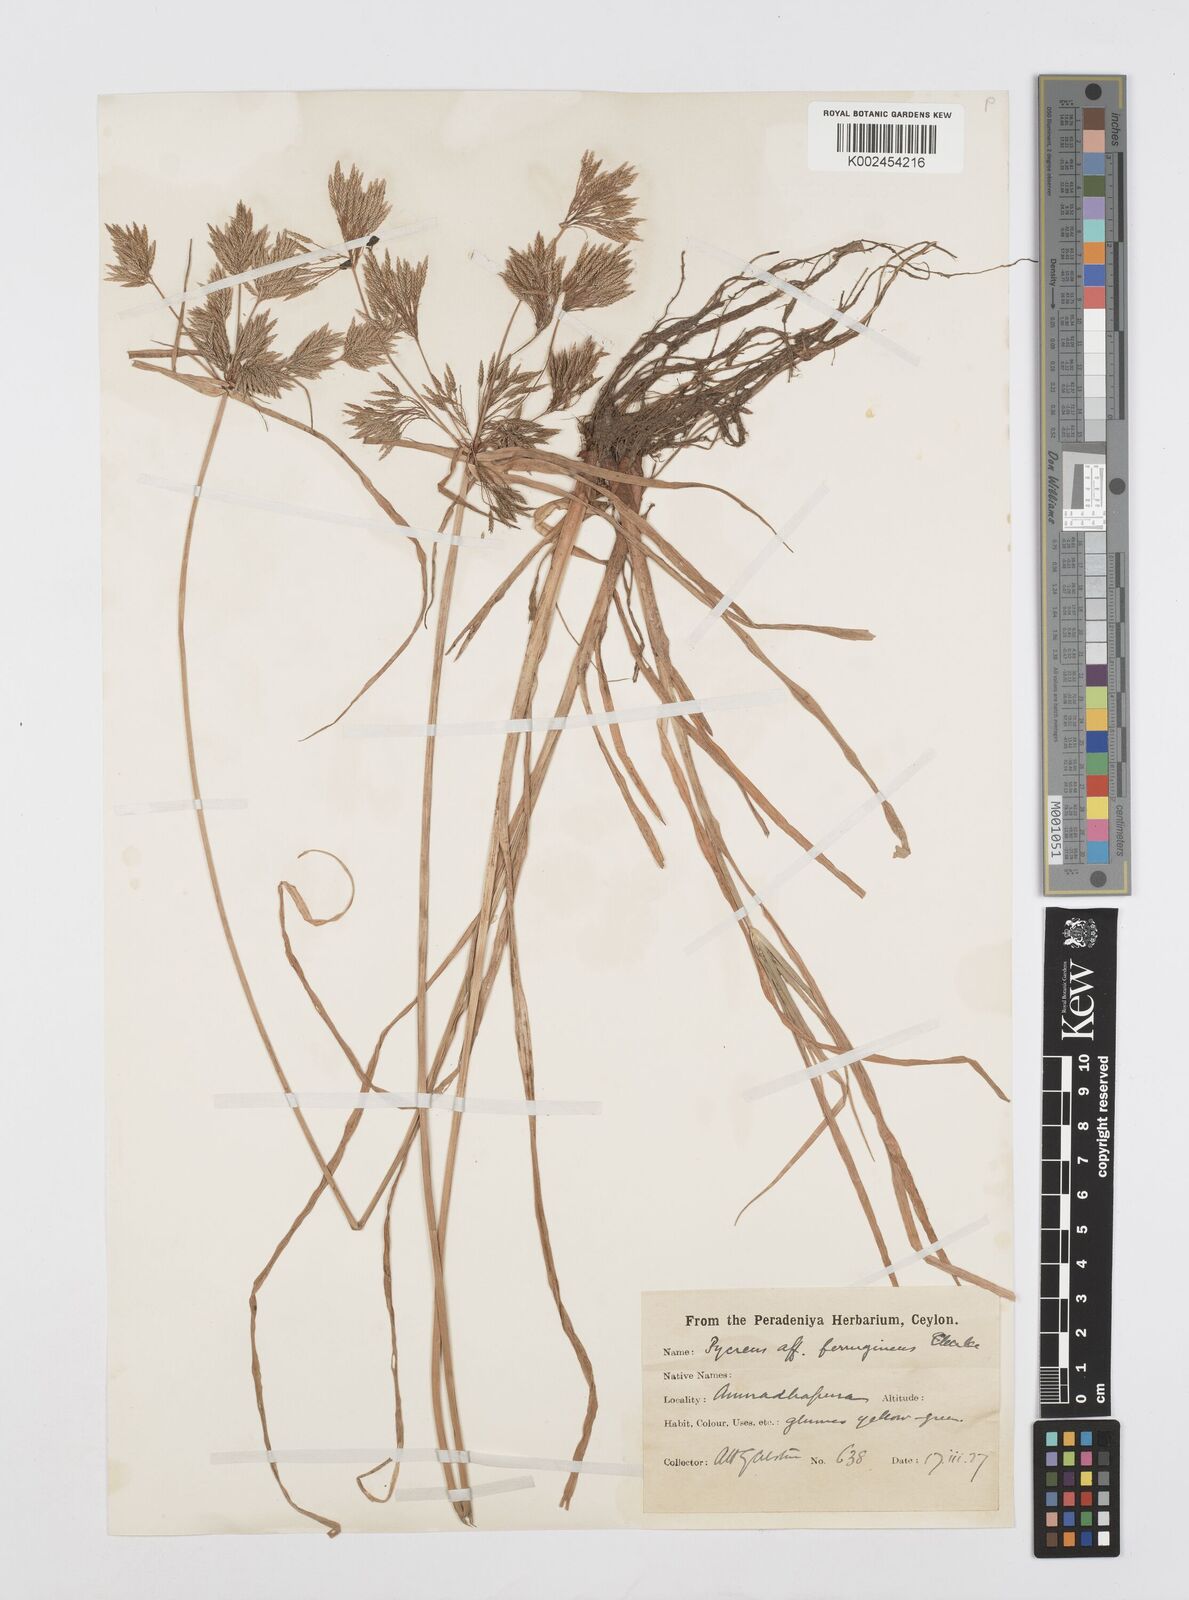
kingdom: Plantae
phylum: Tracheophyta
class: Liliopsida
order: Poales
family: Cyperaceae
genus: Cyperus
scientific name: Cyperus polystachyos
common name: Bunchy flat sedge
